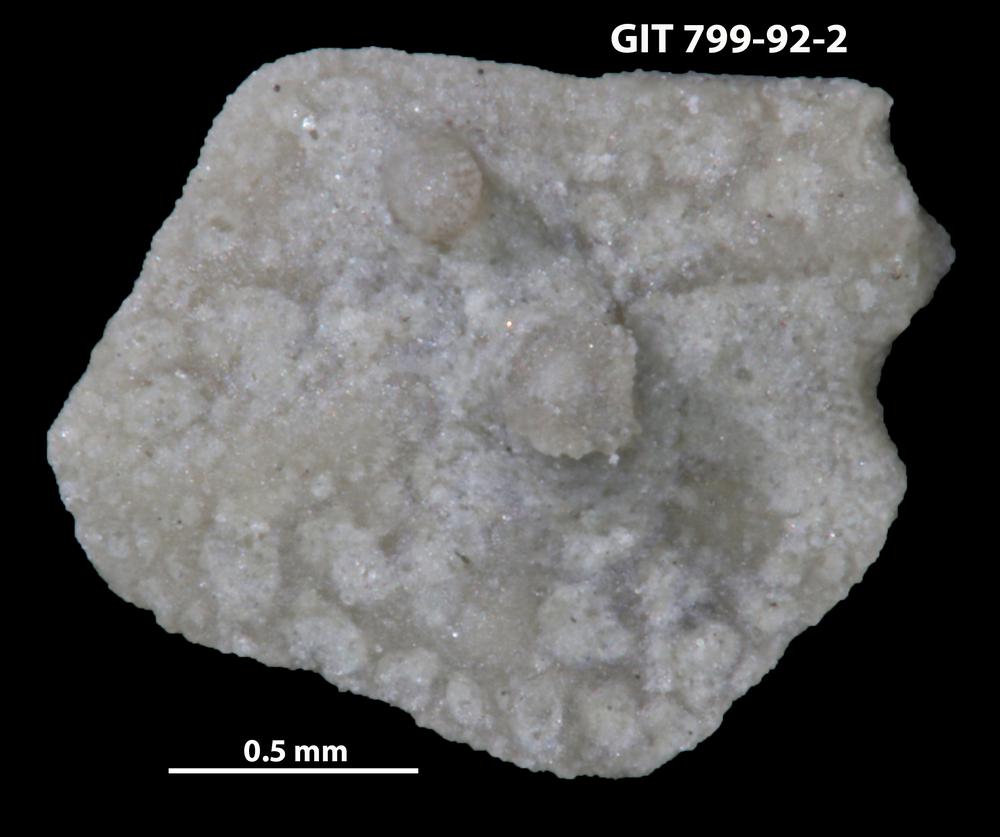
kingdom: Animalia
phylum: Echinodermata
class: Echinoidea
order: Bothriocidaroida
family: Bothriocidaridae
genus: Neobothriocidaris
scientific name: Neobothriocidaris
